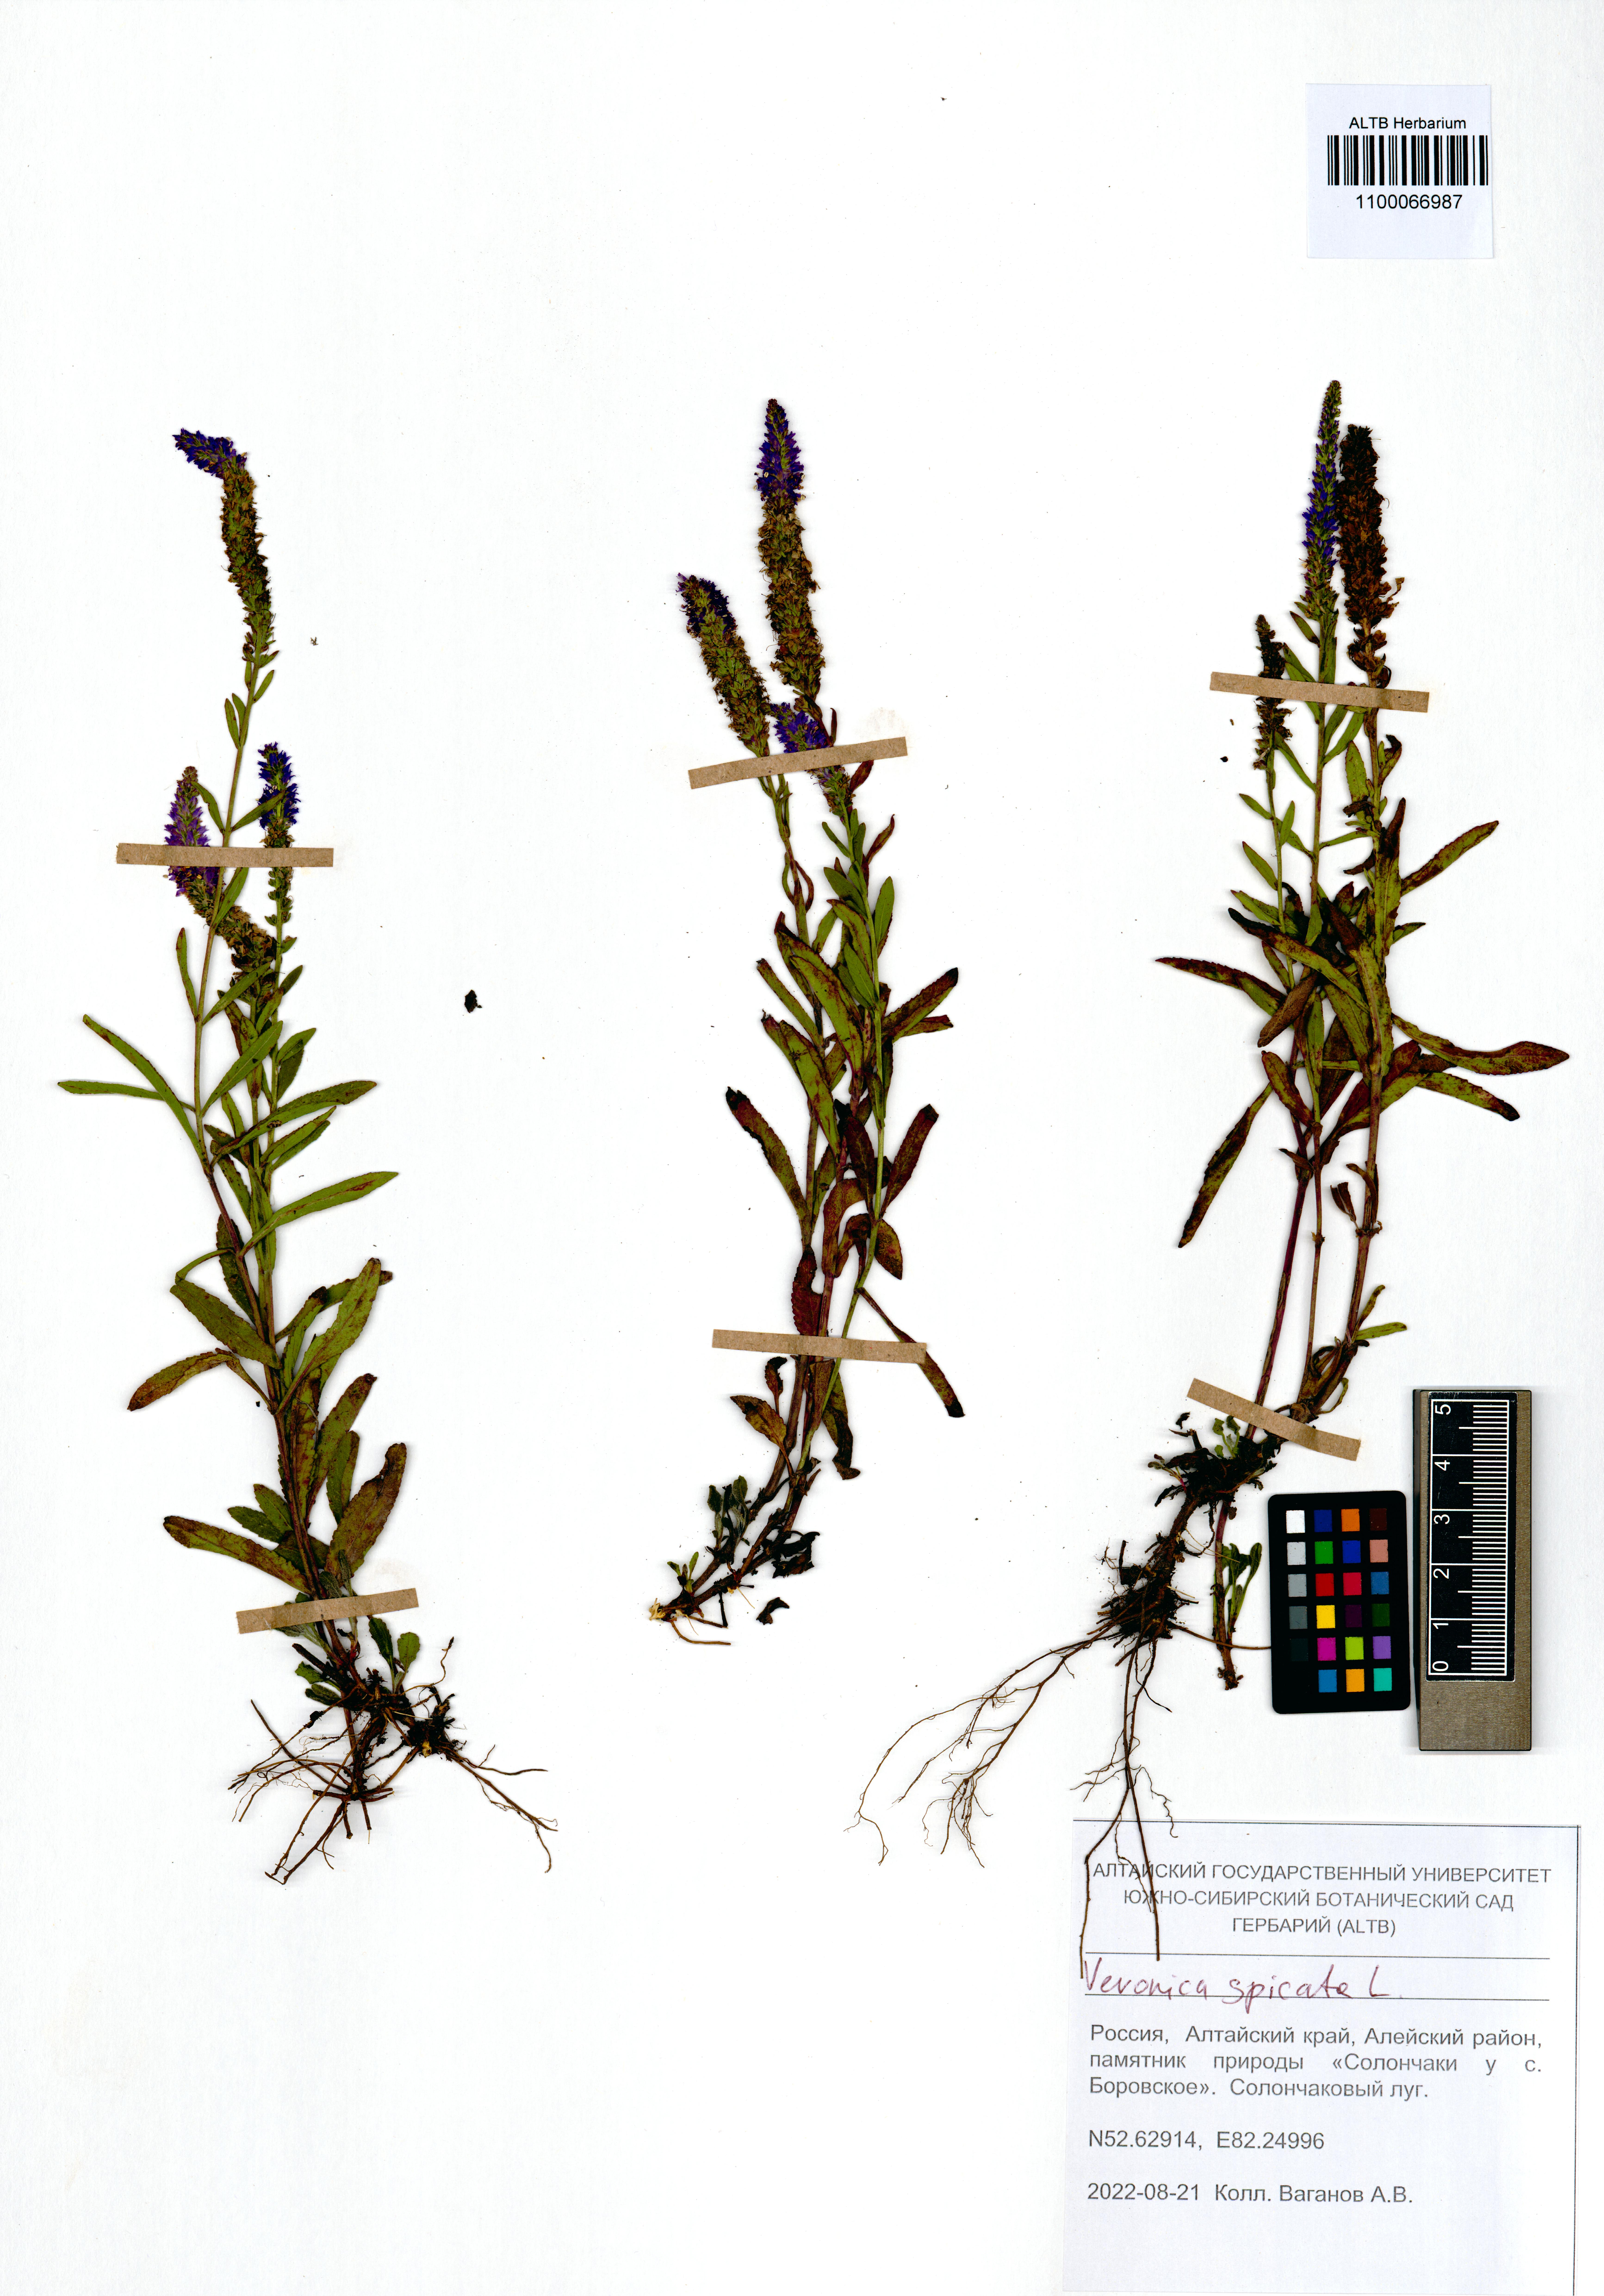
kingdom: Plantae
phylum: Tracheophyta
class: Magnoliopsida
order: Lamiales
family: Plantaginaceae
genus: Veronica
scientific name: Veronica spicata
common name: Spiked speedwell
